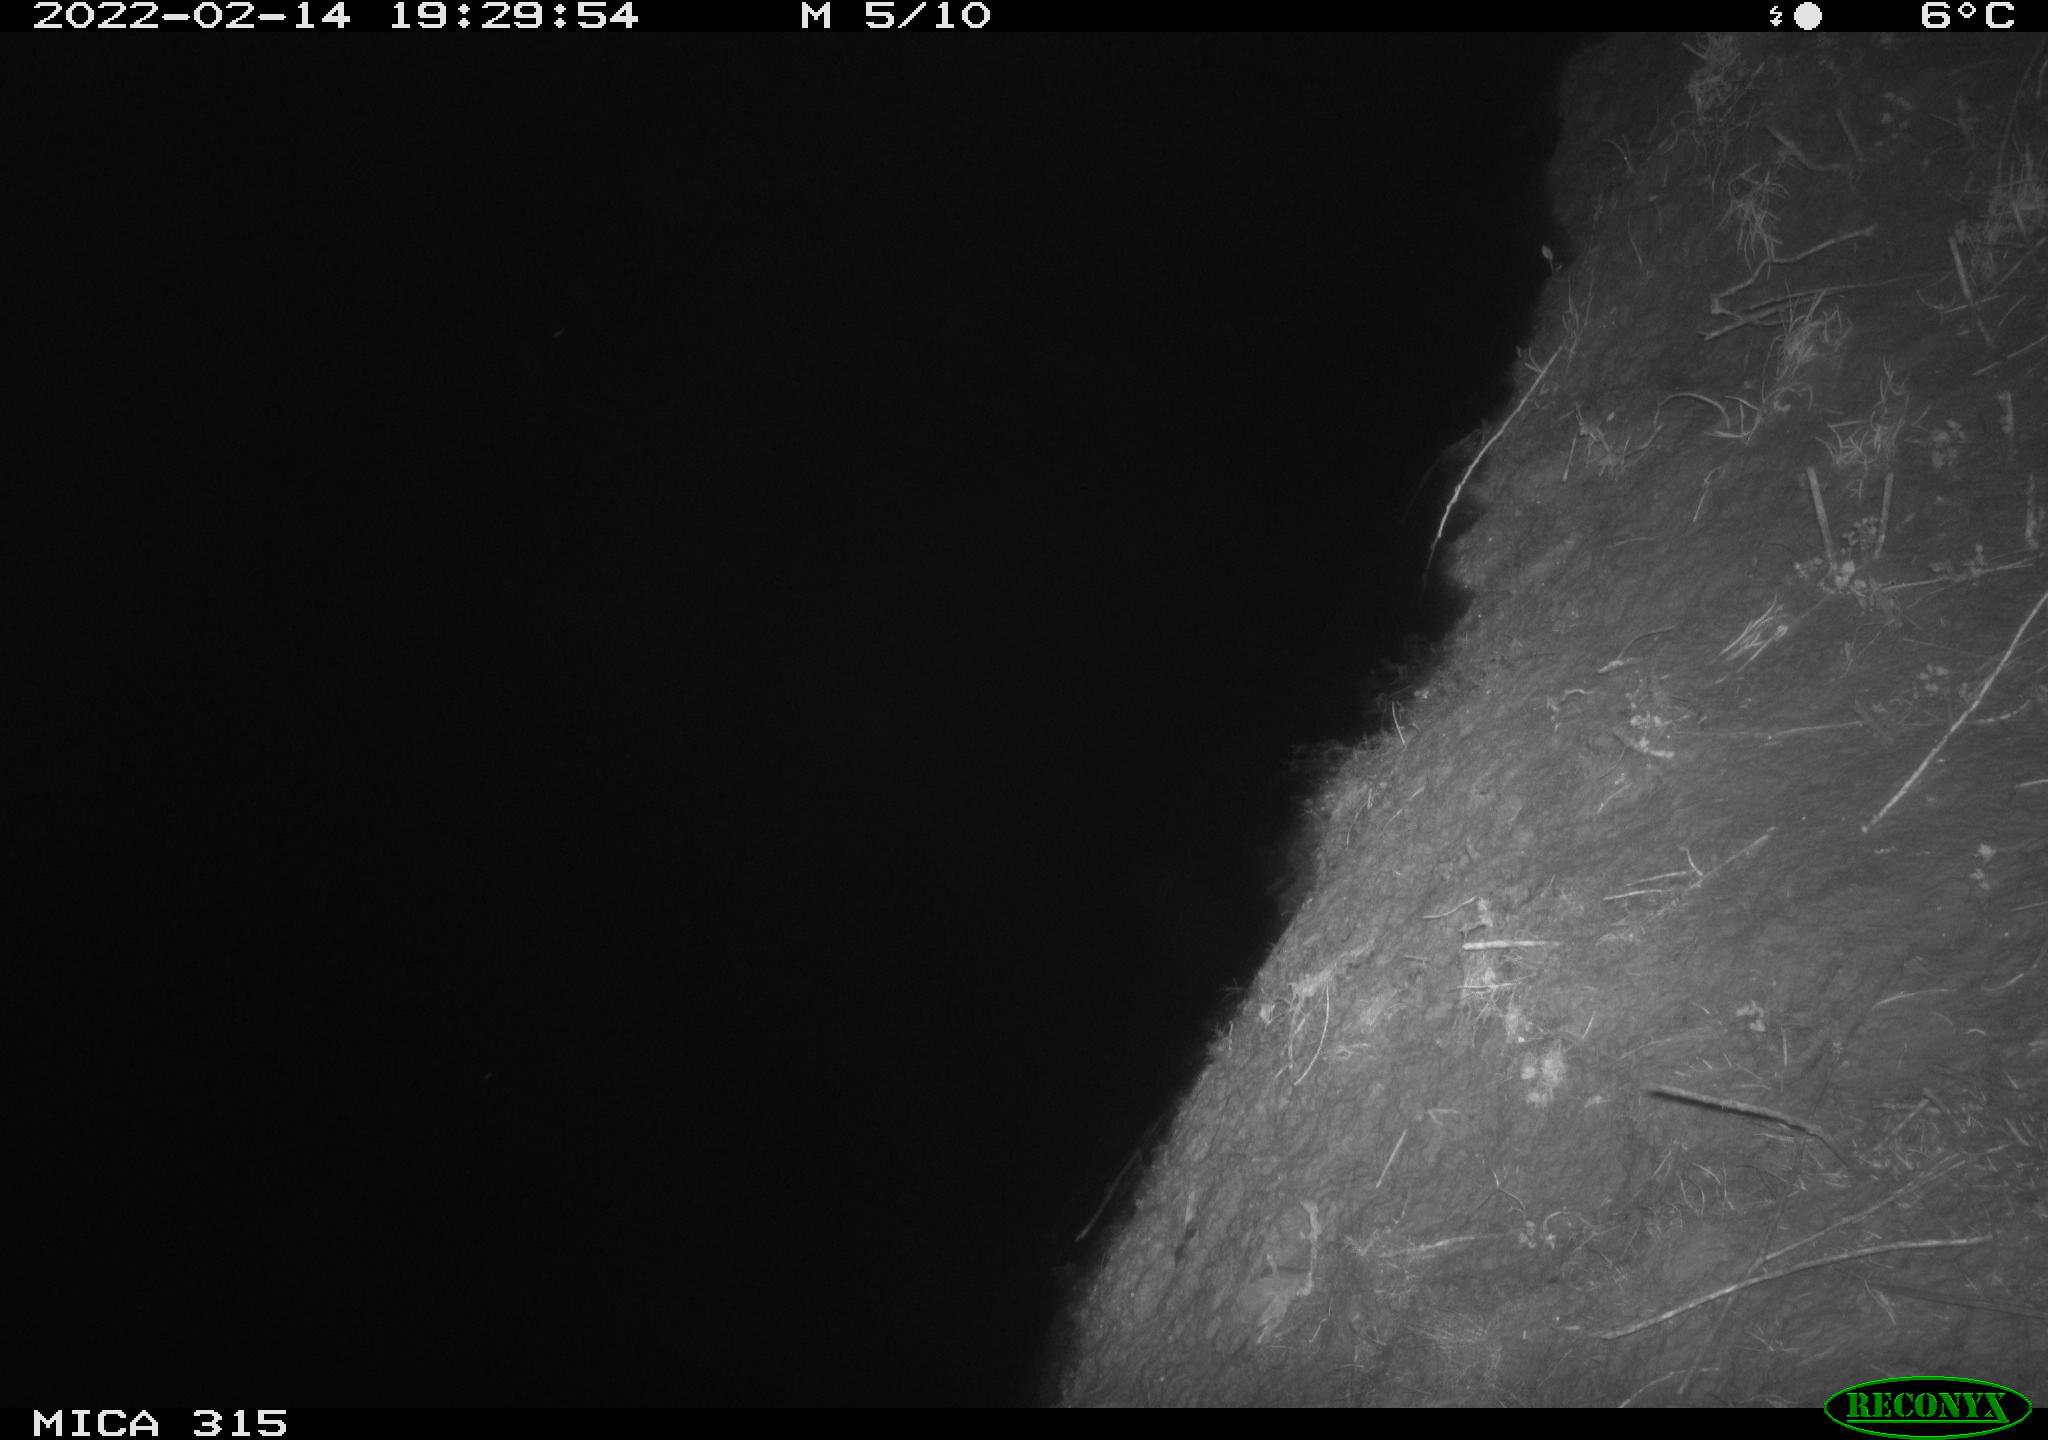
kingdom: Animalia
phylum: Chordata
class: Mammalia
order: Rodentia
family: Muridae
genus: Rattus
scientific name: Rattus norvegicus
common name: Brown rat
